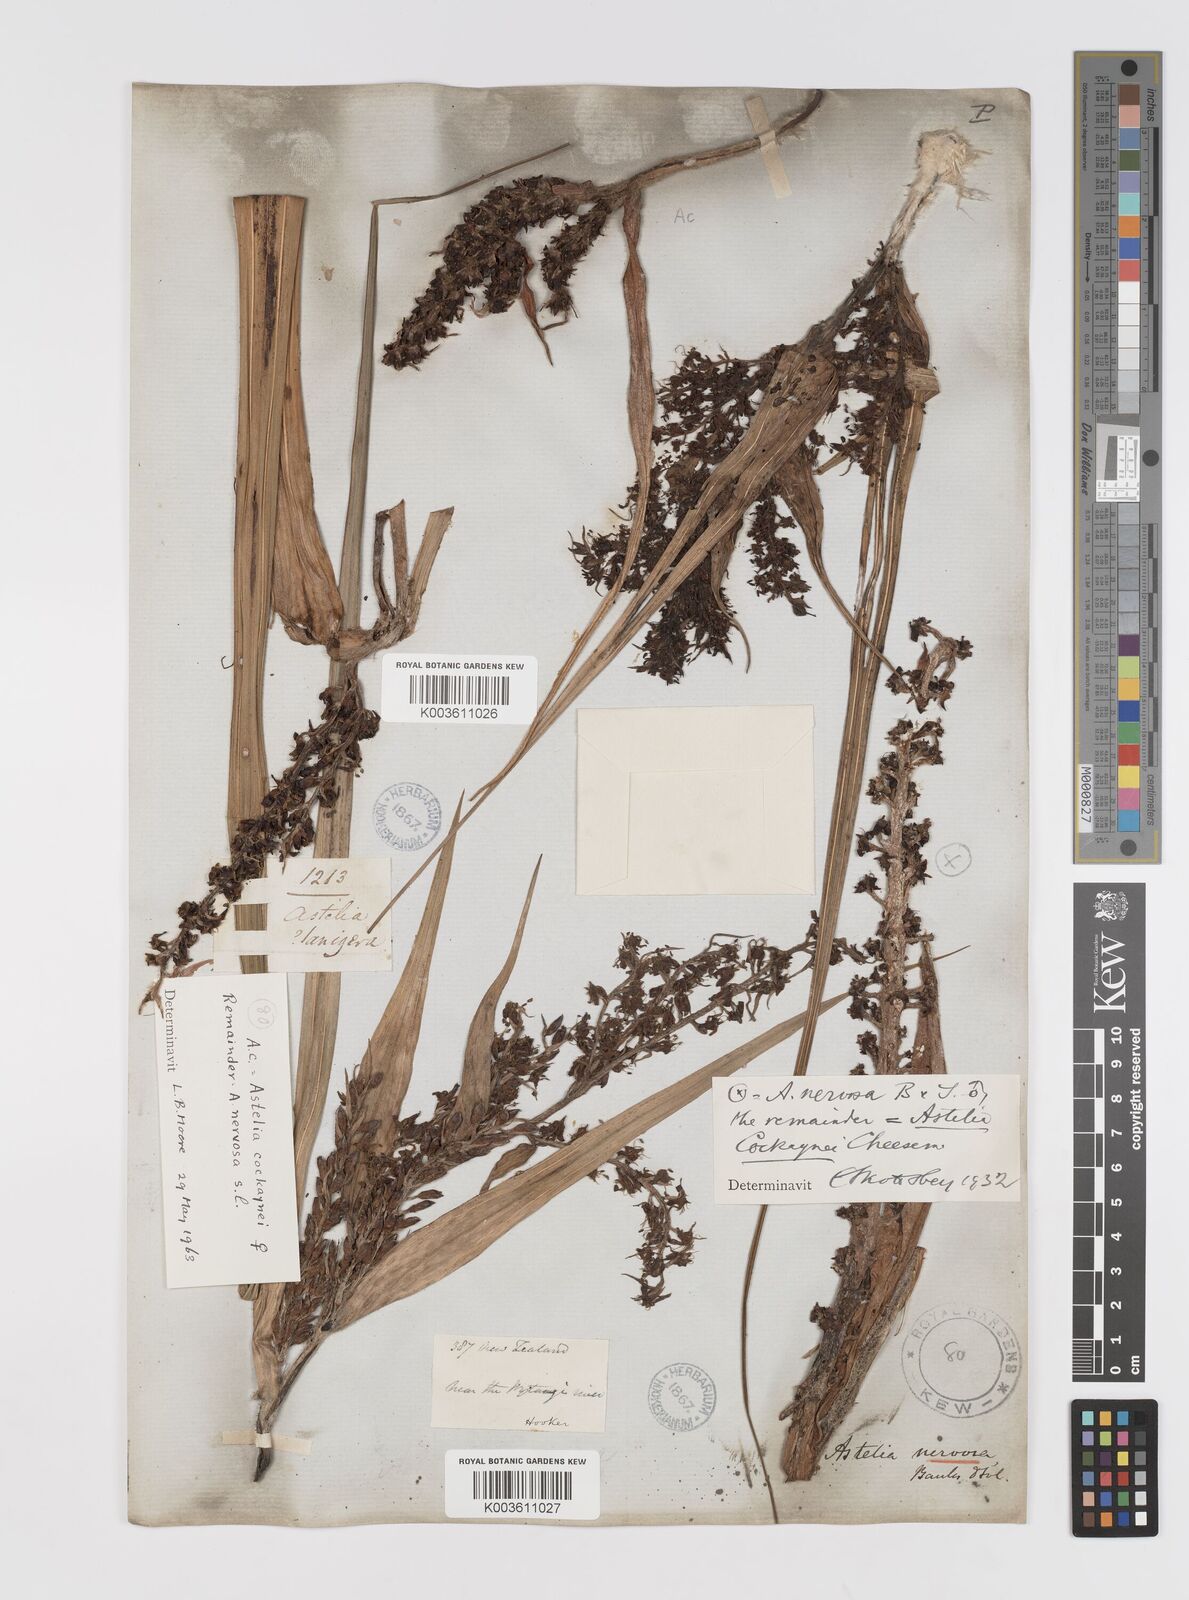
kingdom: Plantae
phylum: Tracheophyta
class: Liliopsida
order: Asparagales
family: Asteliaceae
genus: Astelia
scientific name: Astelia nervosa
